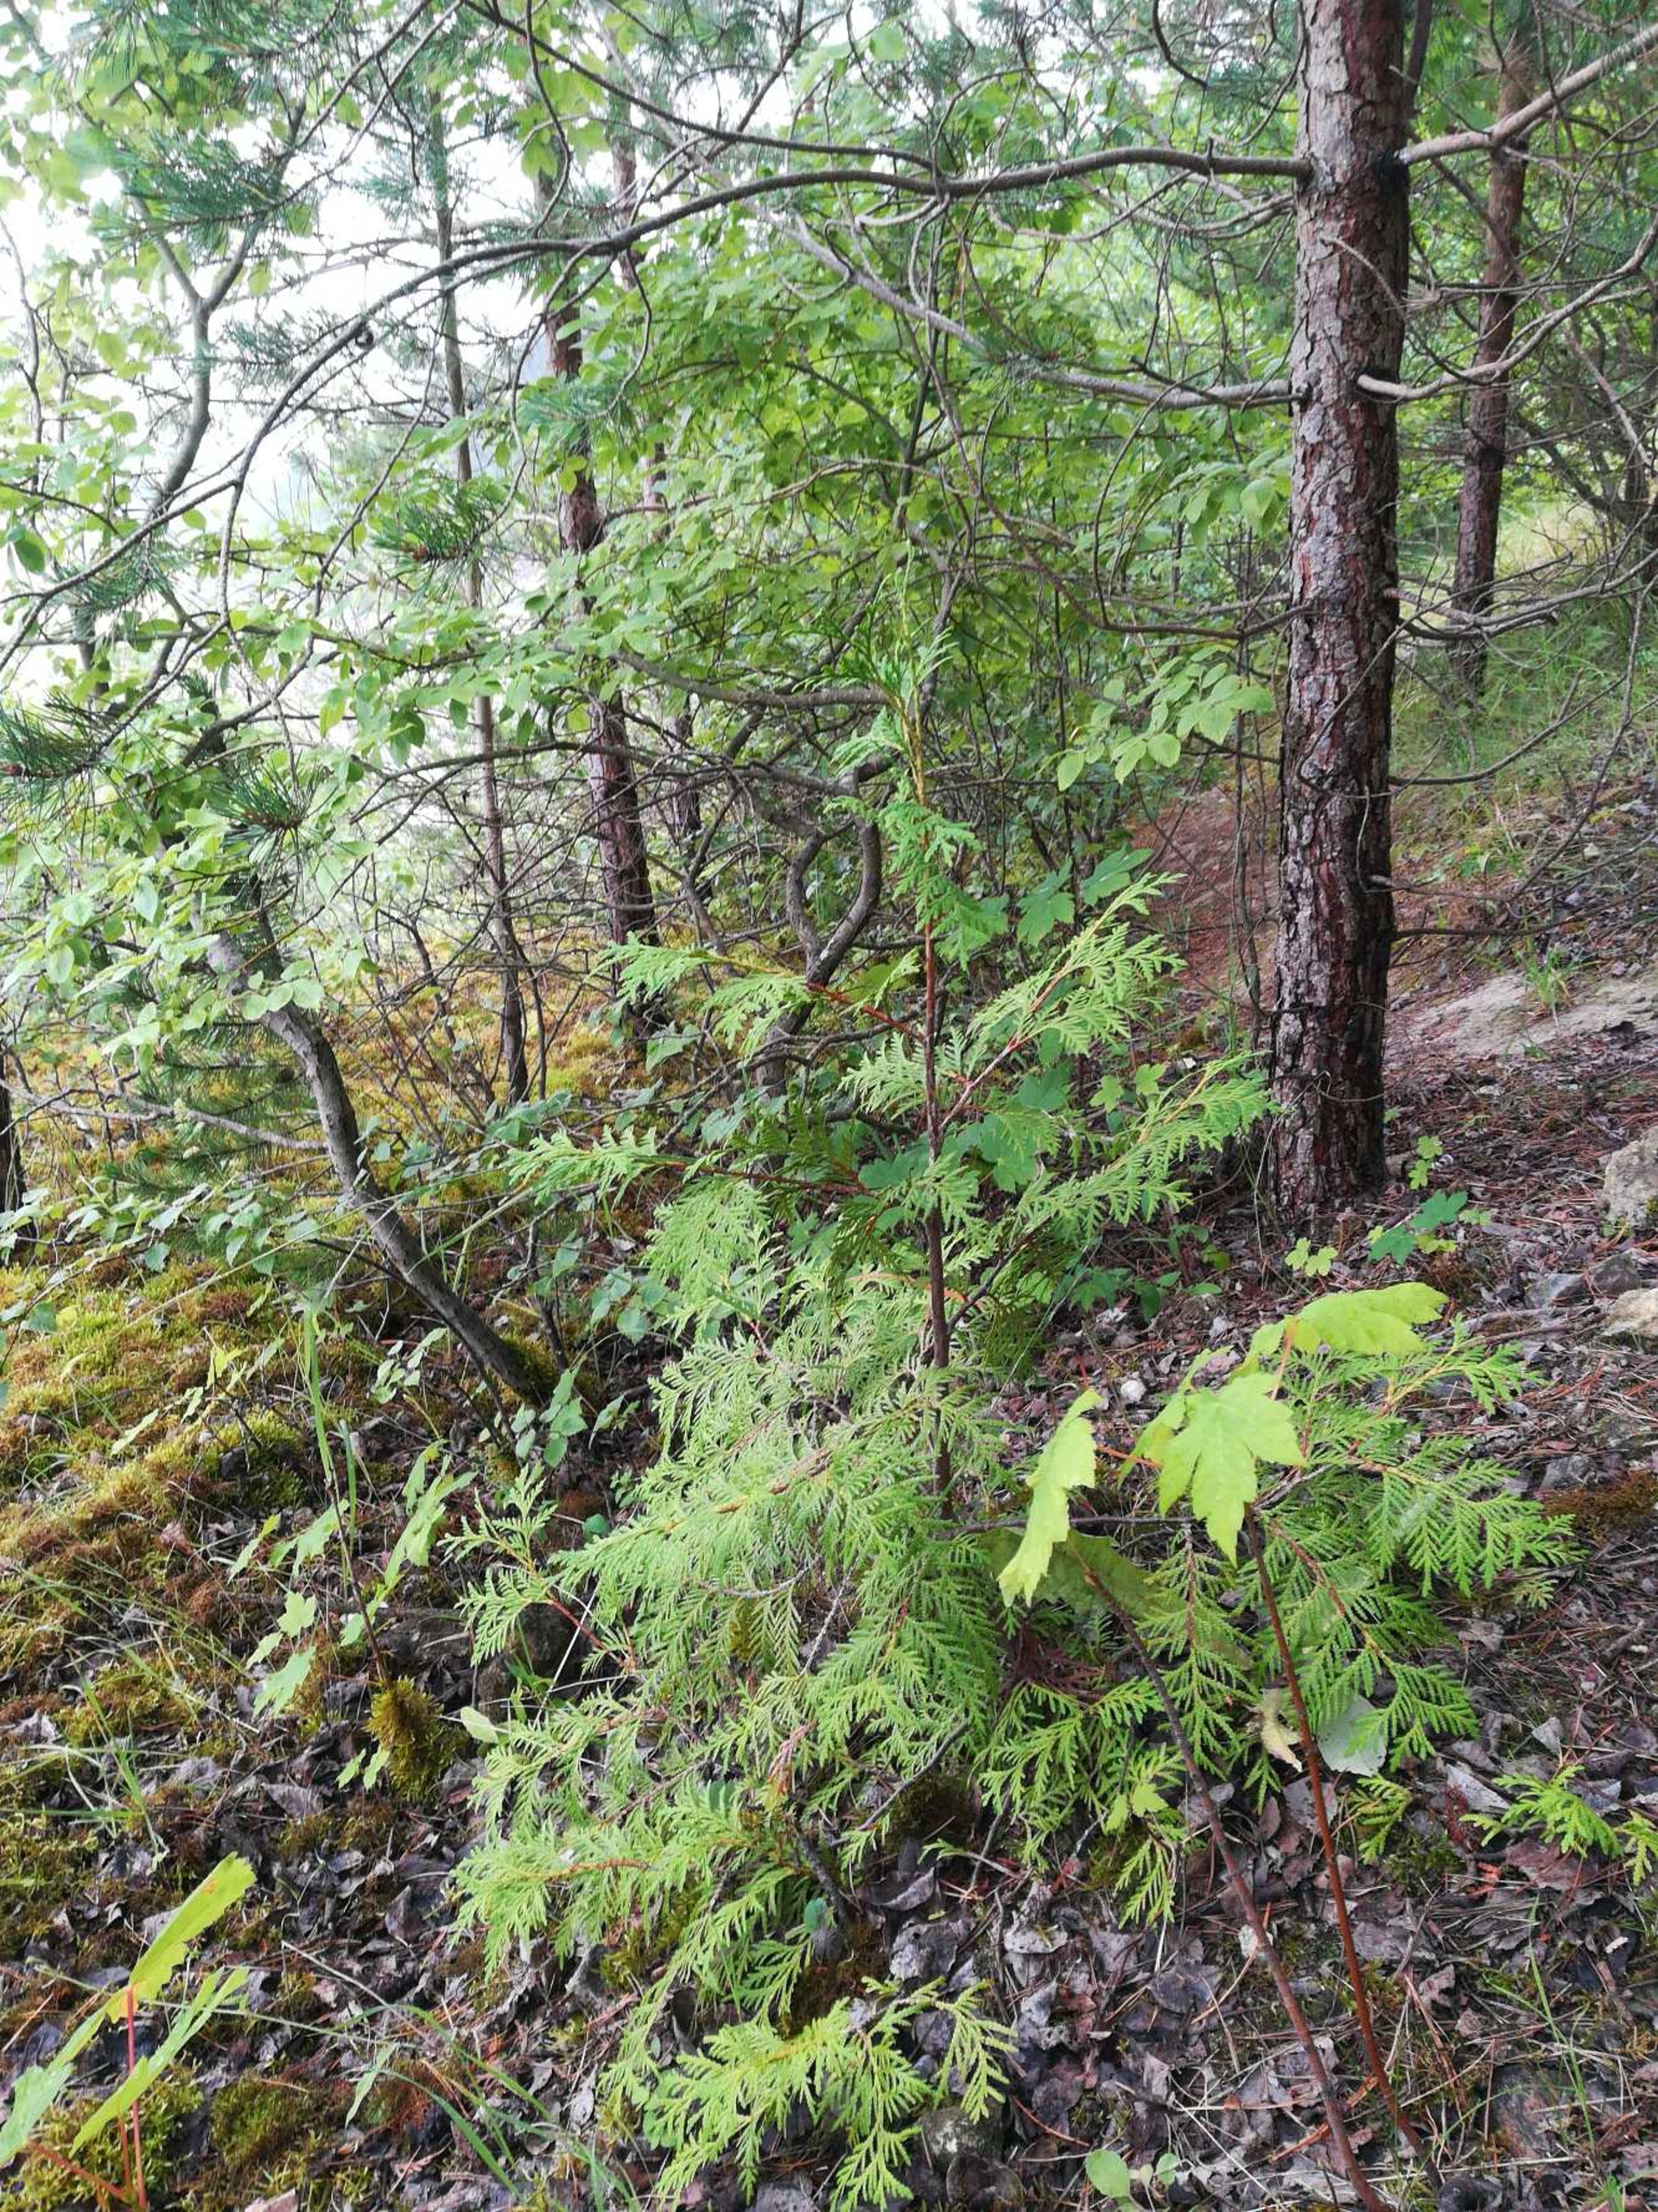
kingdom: Plantae
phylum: Tracheophyta
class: Pinopsida
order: Pinales
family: Cupressaceae
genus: Thuja
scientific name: Thuja occidentalis
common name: Almindelig thuja
